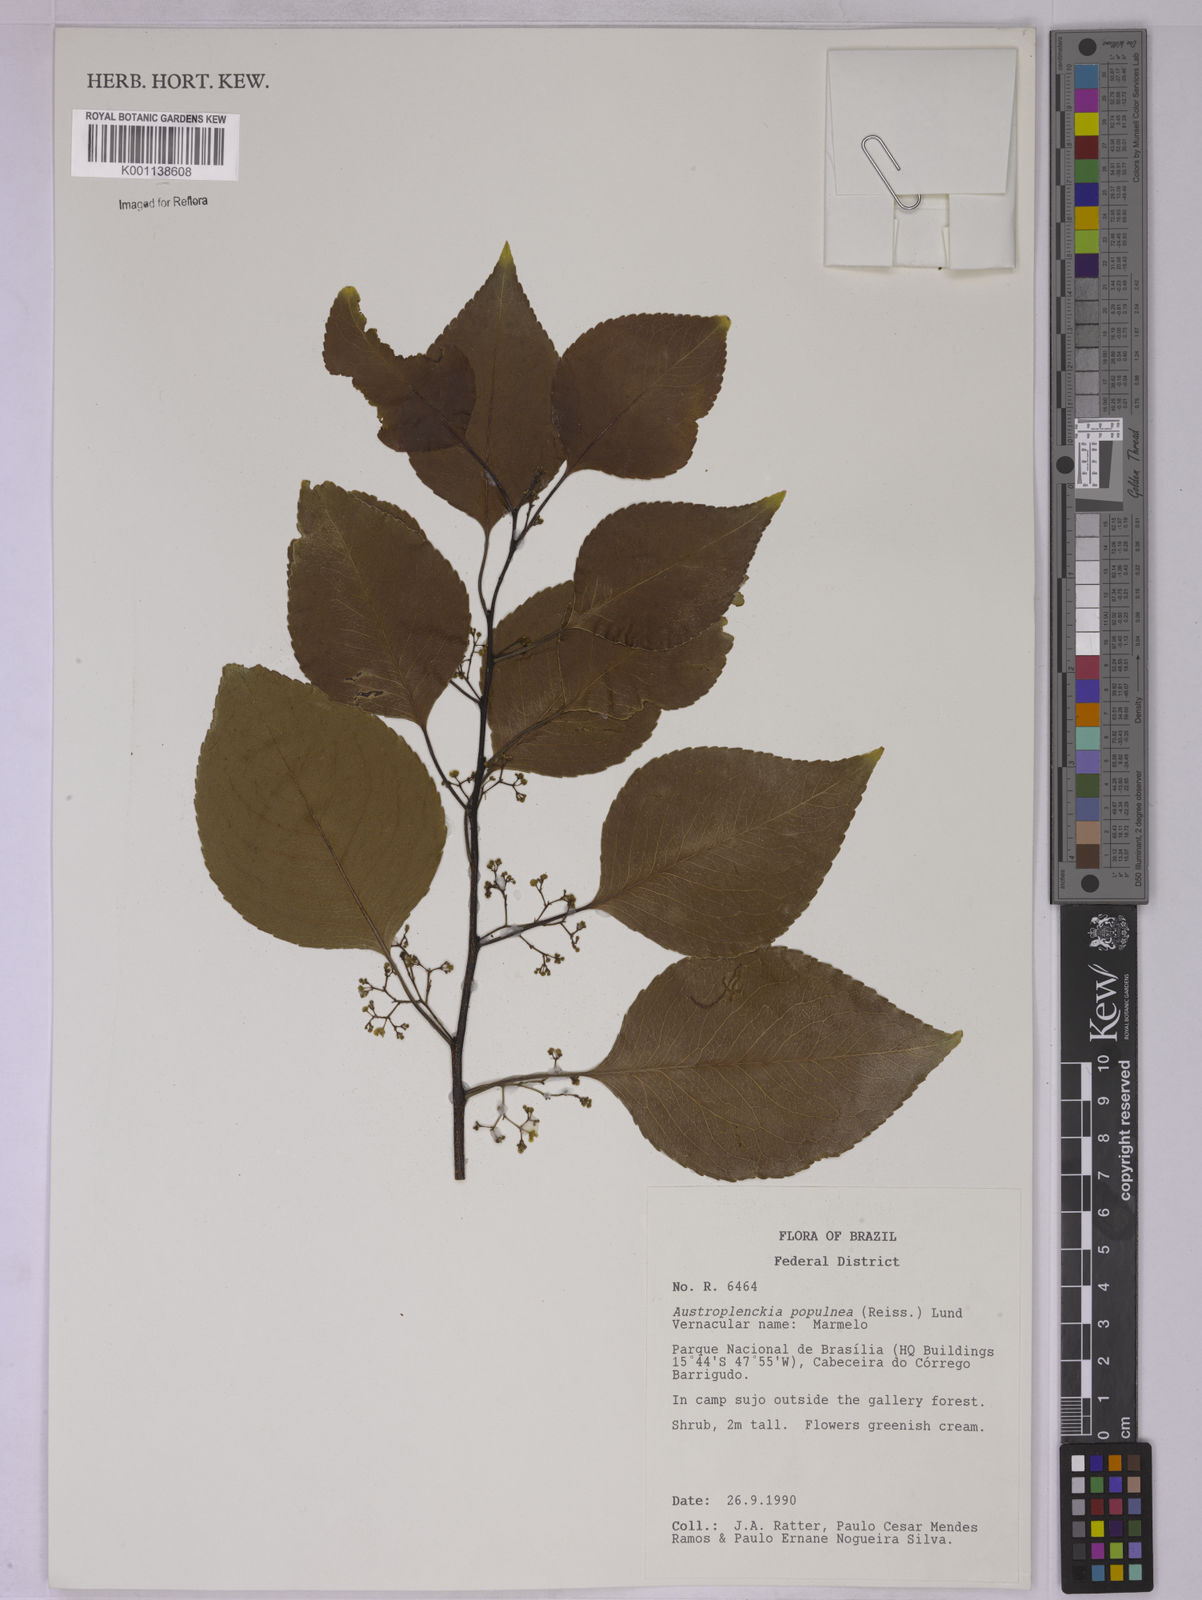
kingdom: Plantae
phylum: Tracheophyta
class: Magnoliopsida
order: Celastrales
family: Celastraceae
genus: Plenckia
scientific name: Plenckia populnea
